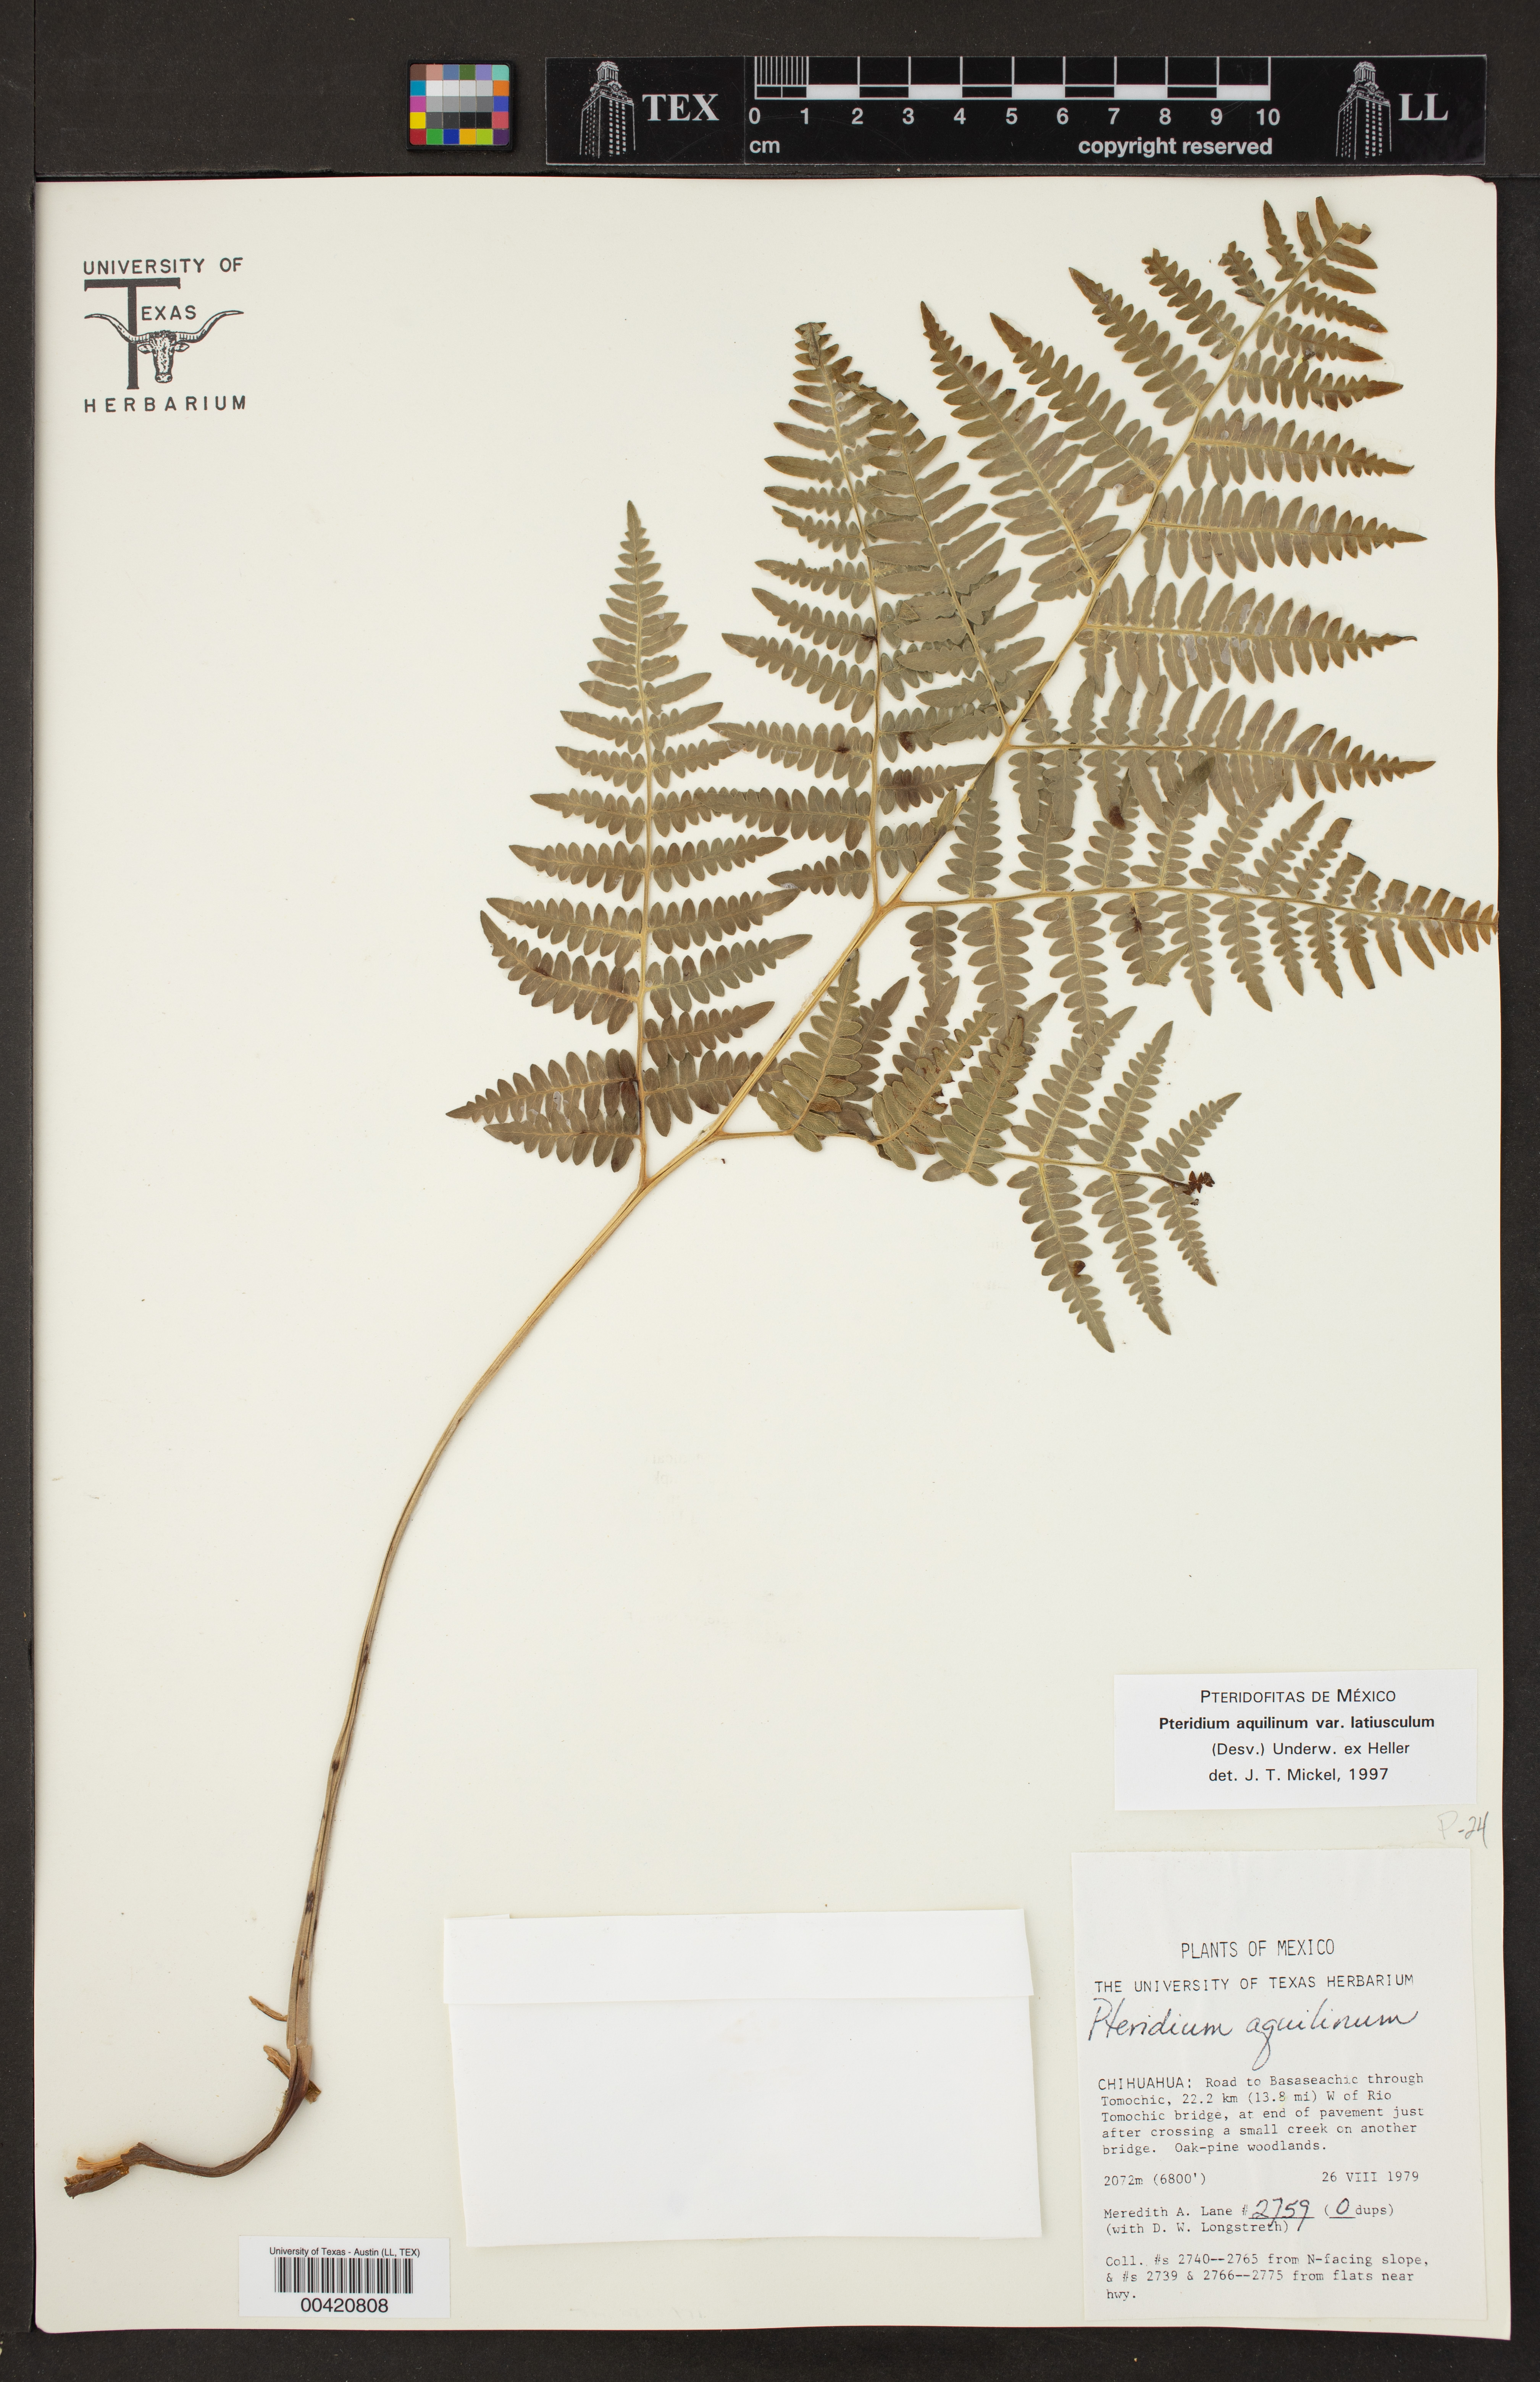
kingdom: Plantae
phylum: Tracheophyta
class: Polypodiopsida
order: Polypodiales
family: Dennstaedtiaceae
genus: Pteridium
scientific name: Pteridium aquilinum
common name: Bracken
